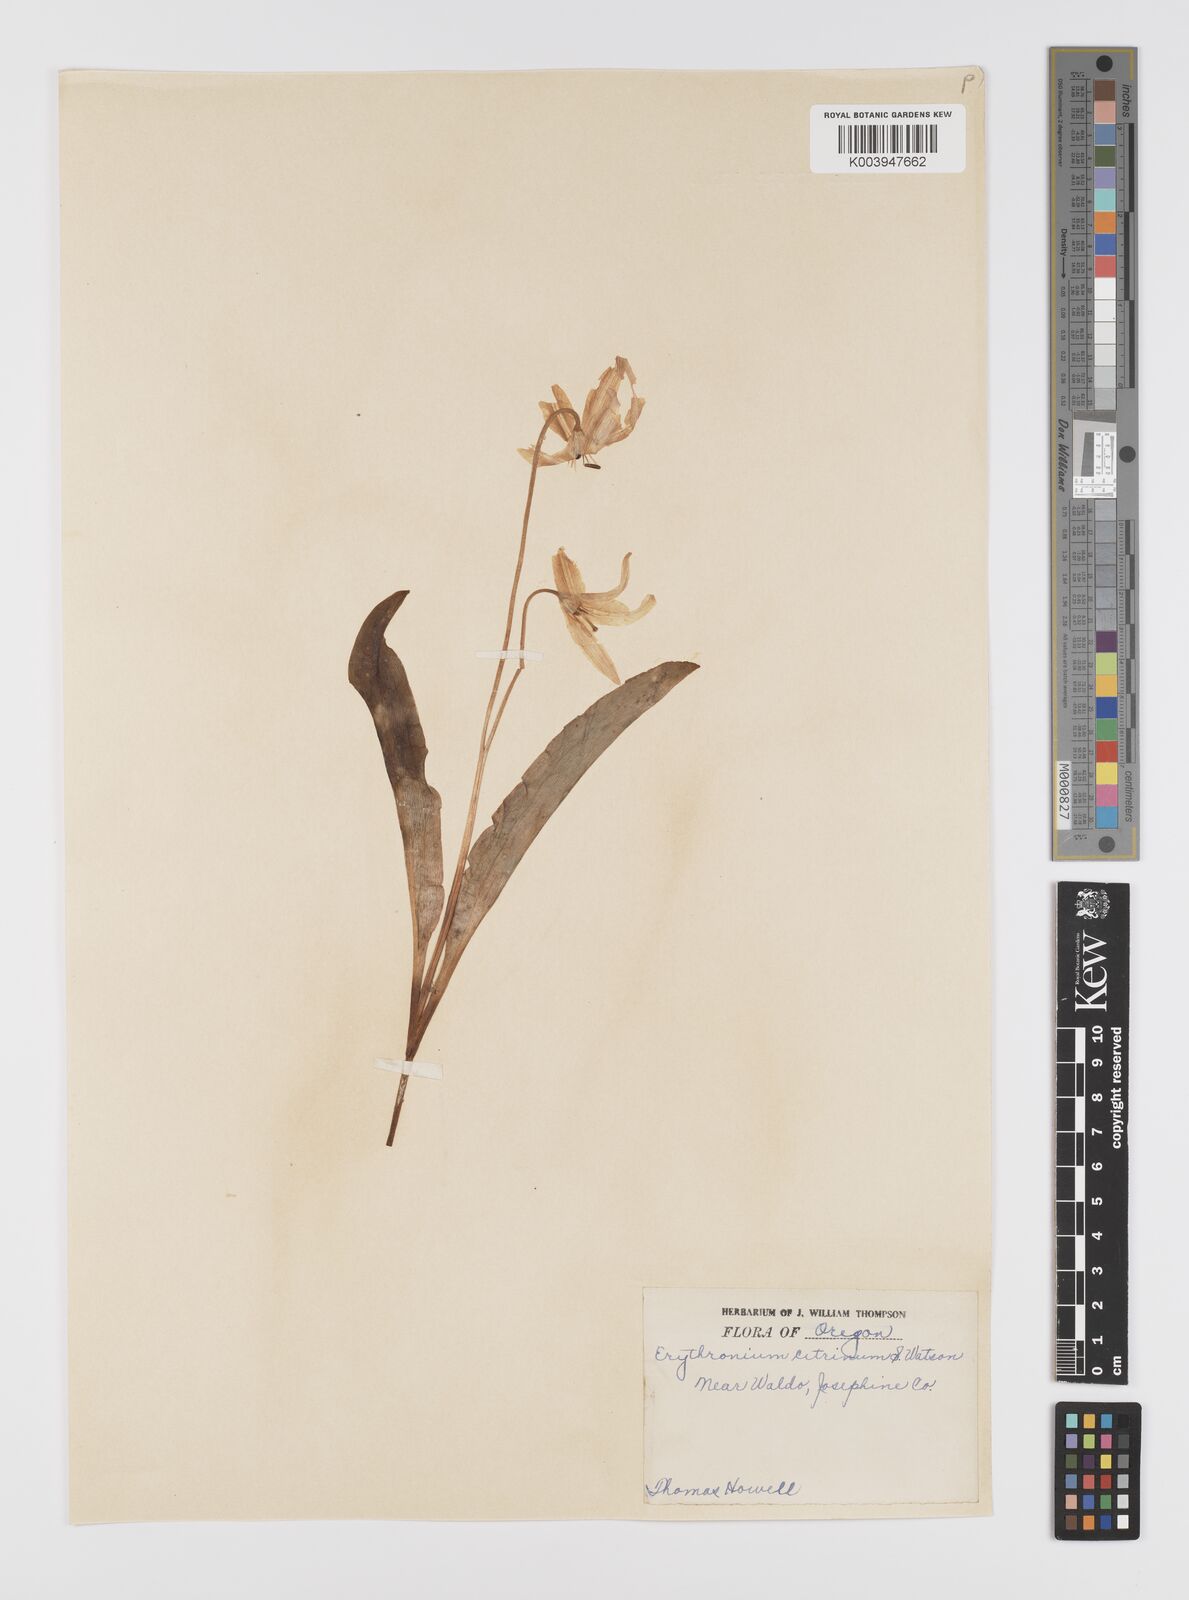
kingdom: Plantae
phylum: Tracheophyta
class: Liliopsida
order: Liliales
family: Liliaceae
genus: Erythronium
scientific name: Erythronium citrinum
